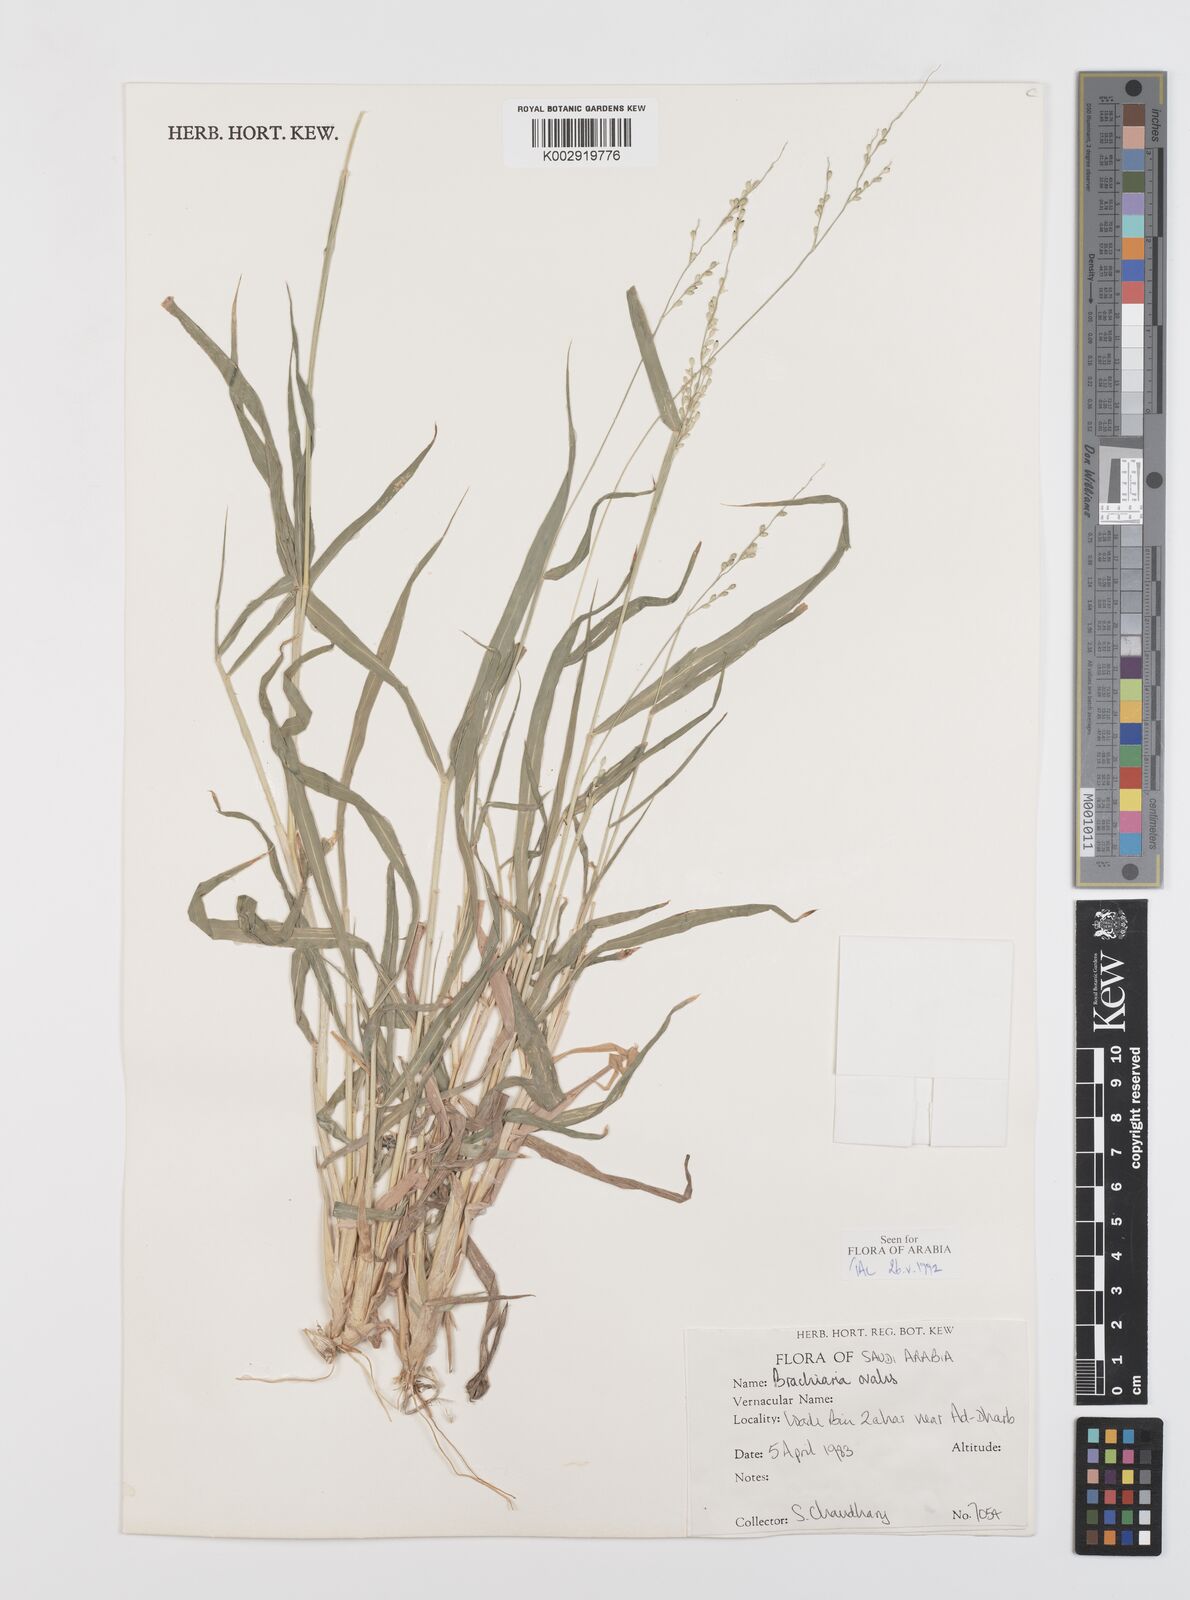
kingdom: Plantae
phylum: Tracheophyta
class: Liliopsida
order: Poales
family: Poaceae
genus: Urochloa
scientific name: Urochloa ovalis
